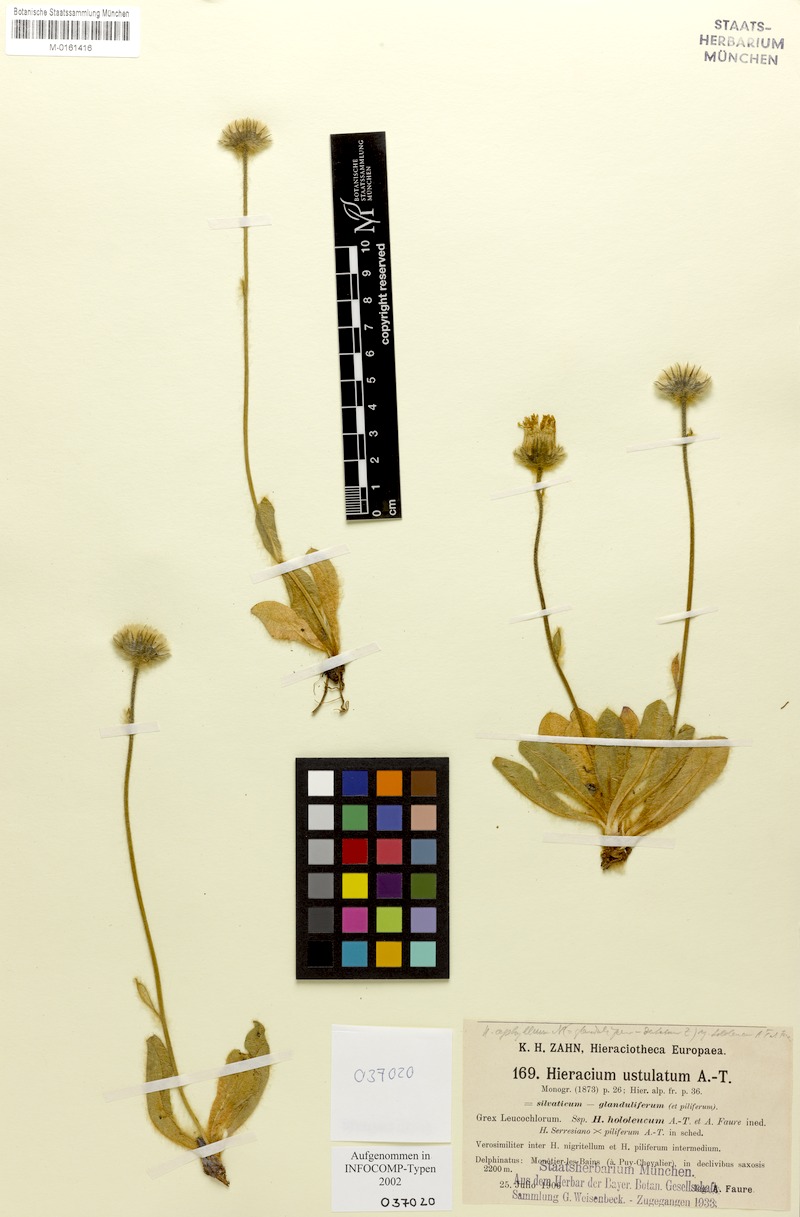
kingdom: Plantae
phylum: Tracheophyta
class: Magnoliopsida
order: Asterales
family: Asteraceae
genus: Hieracium
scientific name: Hieracium aphyllum
